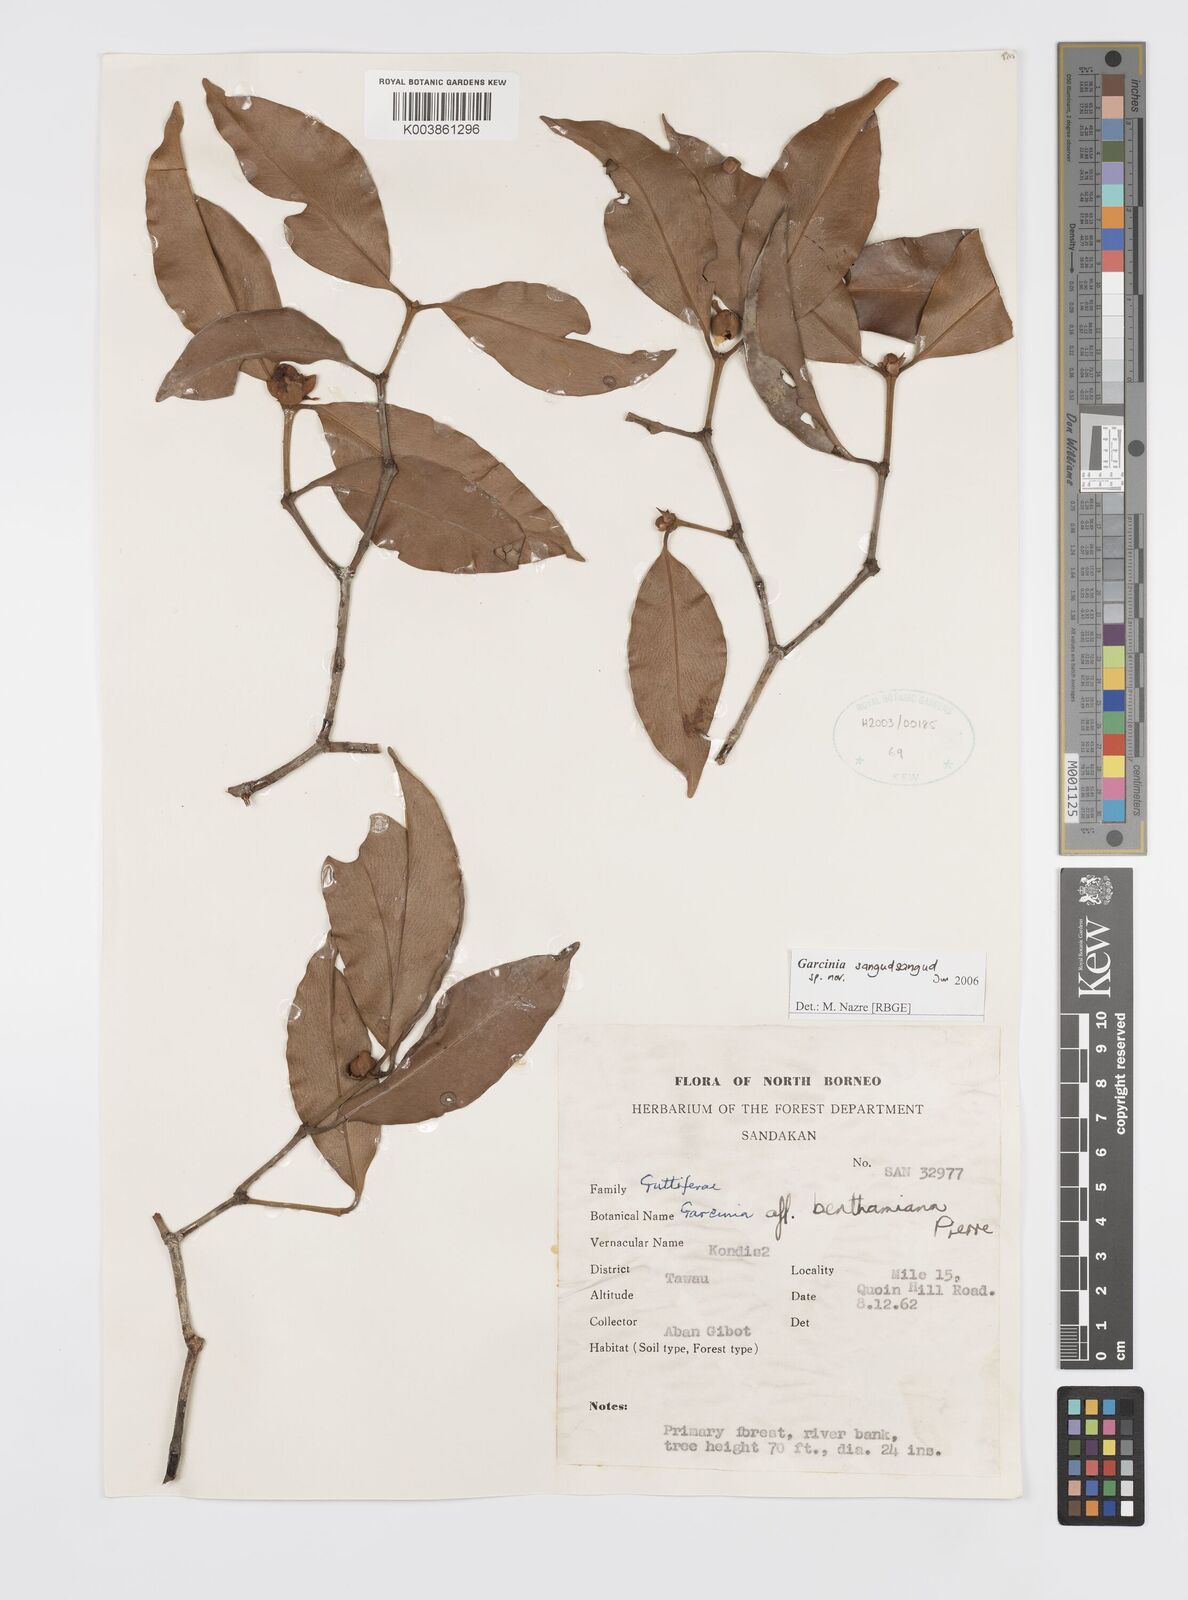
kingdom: Plantae
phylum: Tracheophyta
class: Magnoliopsida
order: Malpighiales
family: Clusiaceae
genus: Garcinia
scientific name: Garcinia sangudsangud
